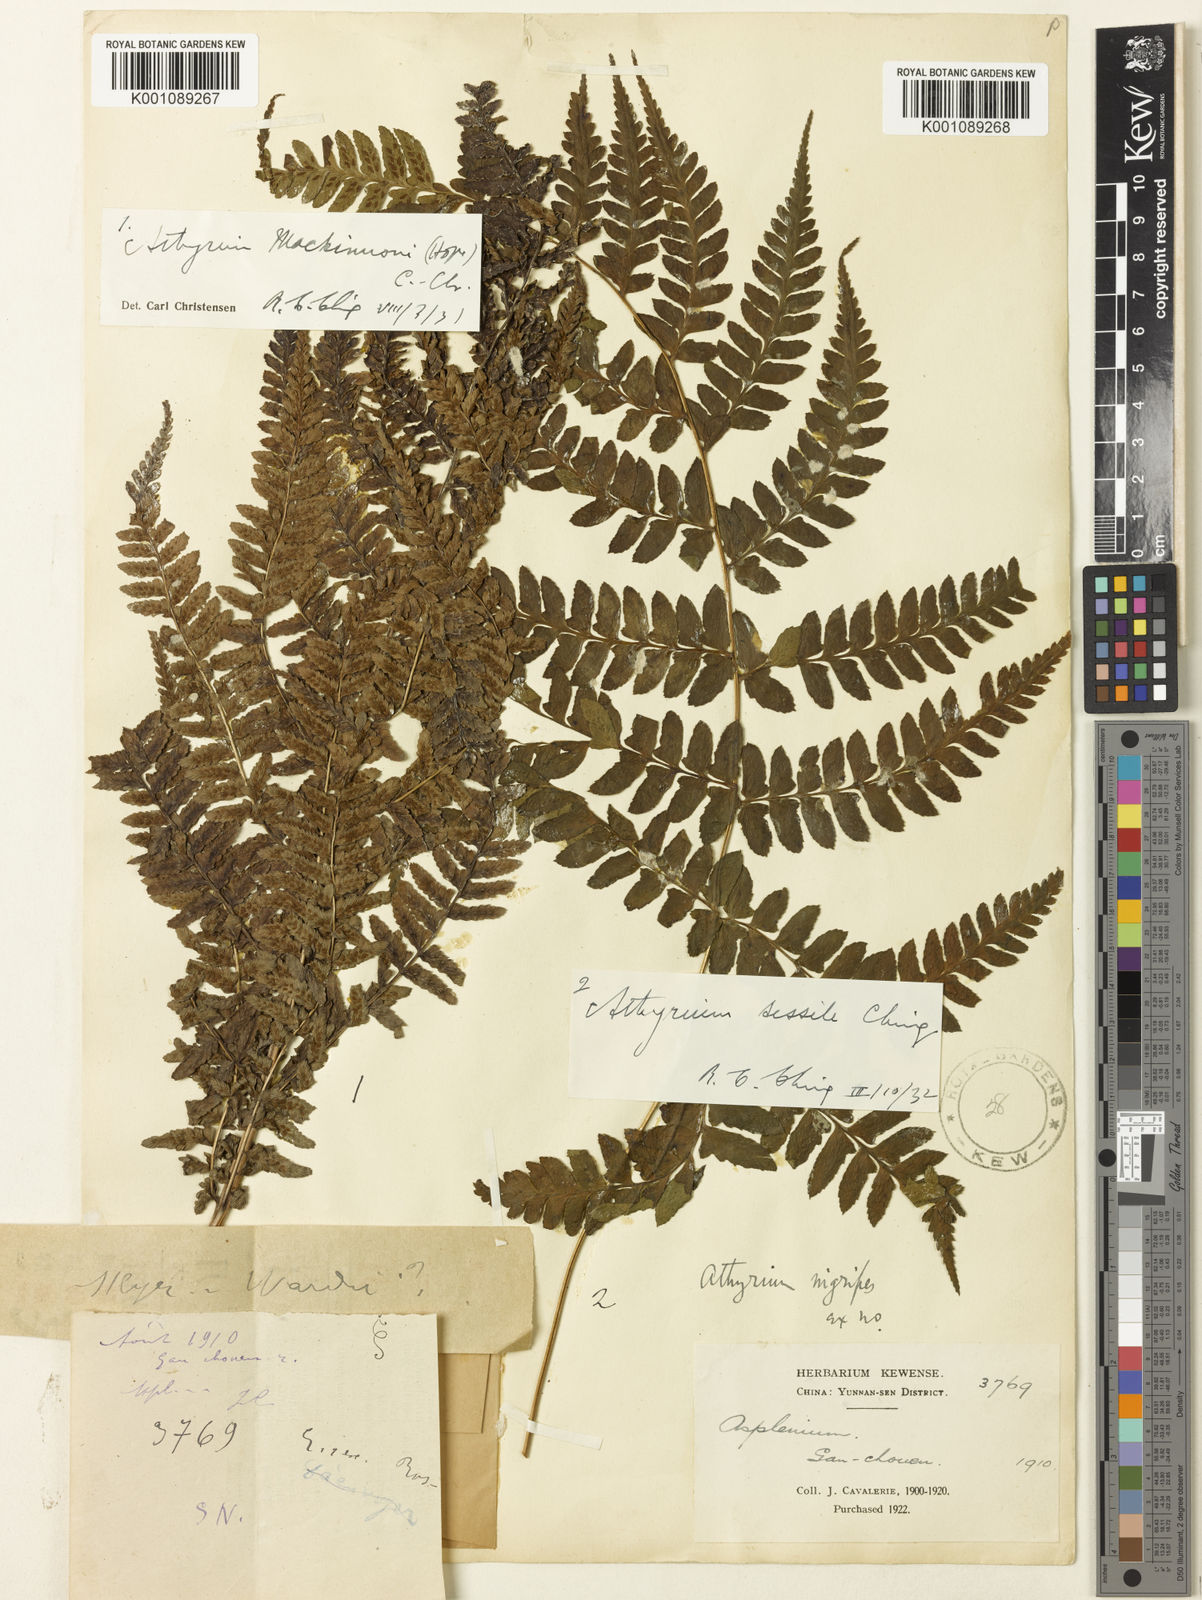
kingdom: Plantae
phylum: Tracheophyta
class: Polypodiopsida
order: Polypodiales
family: Athyriaceae
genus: Athyrium
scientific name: Athyrium pubicostatum
